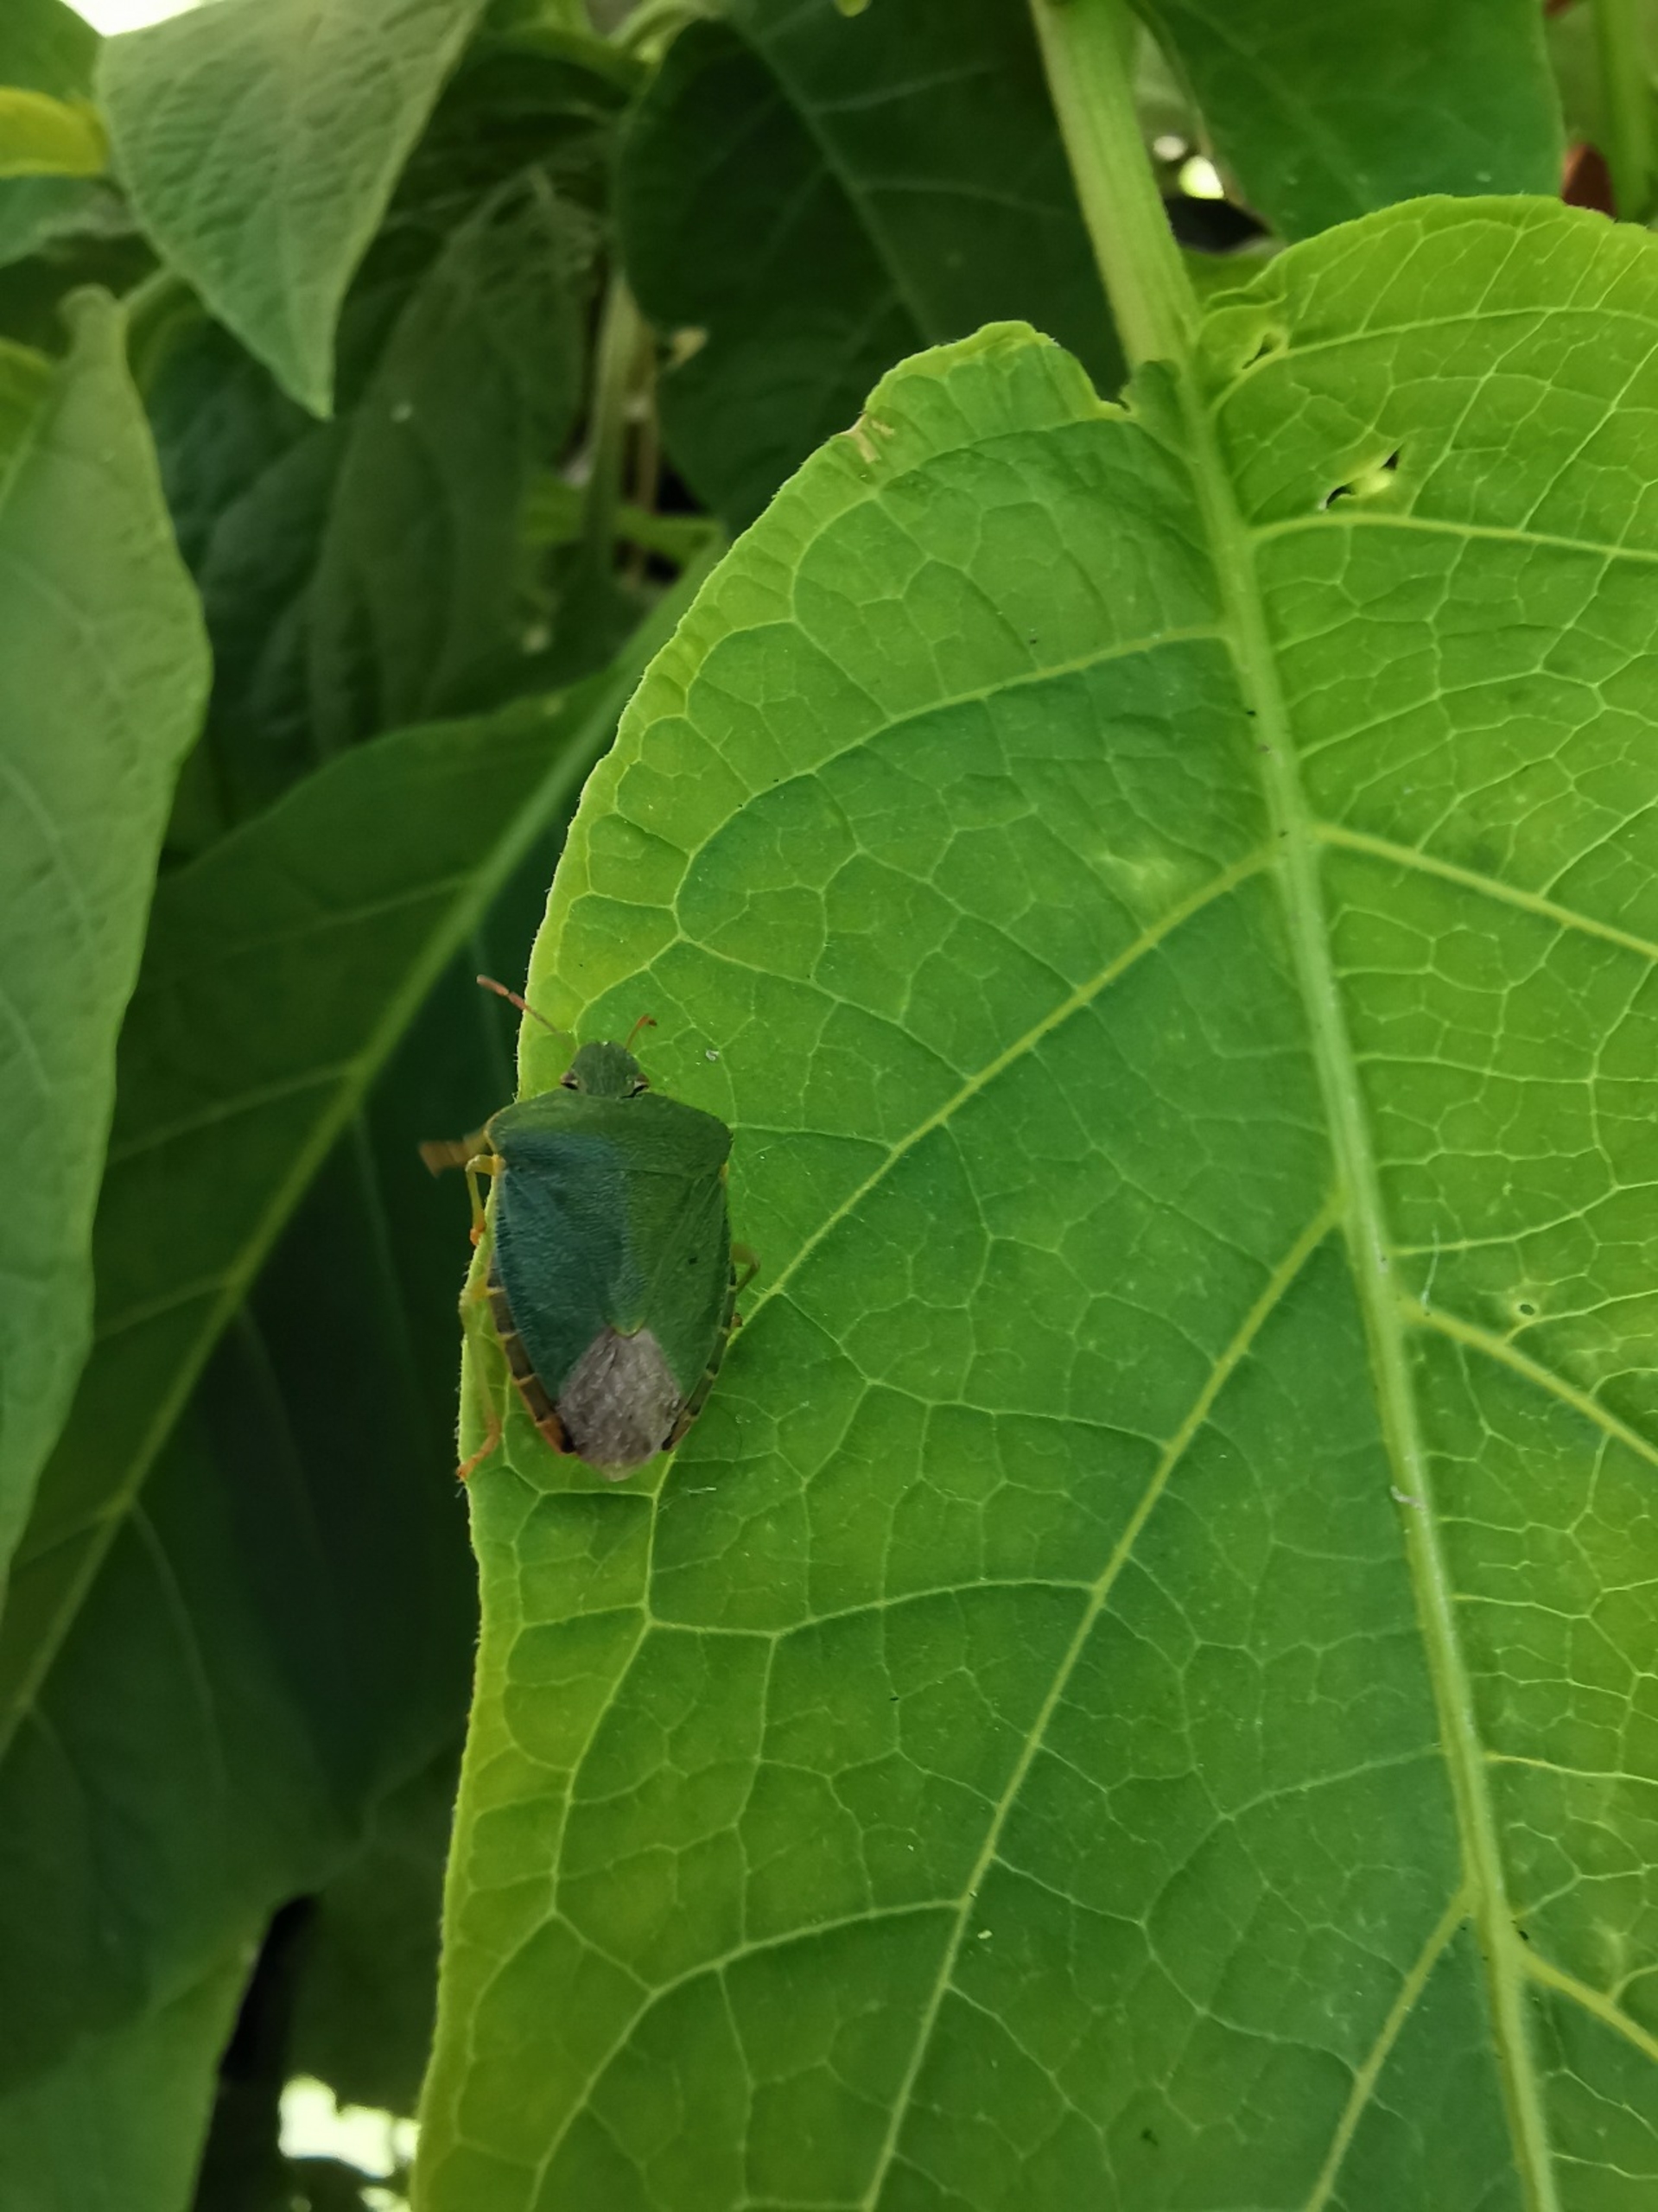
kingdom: Animalia
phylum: Arthropoda
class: Insecta
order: Hemiptera
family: Pentatomidae
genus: Palomena
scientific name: Palomena prasina
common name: Grøn bredtæge
